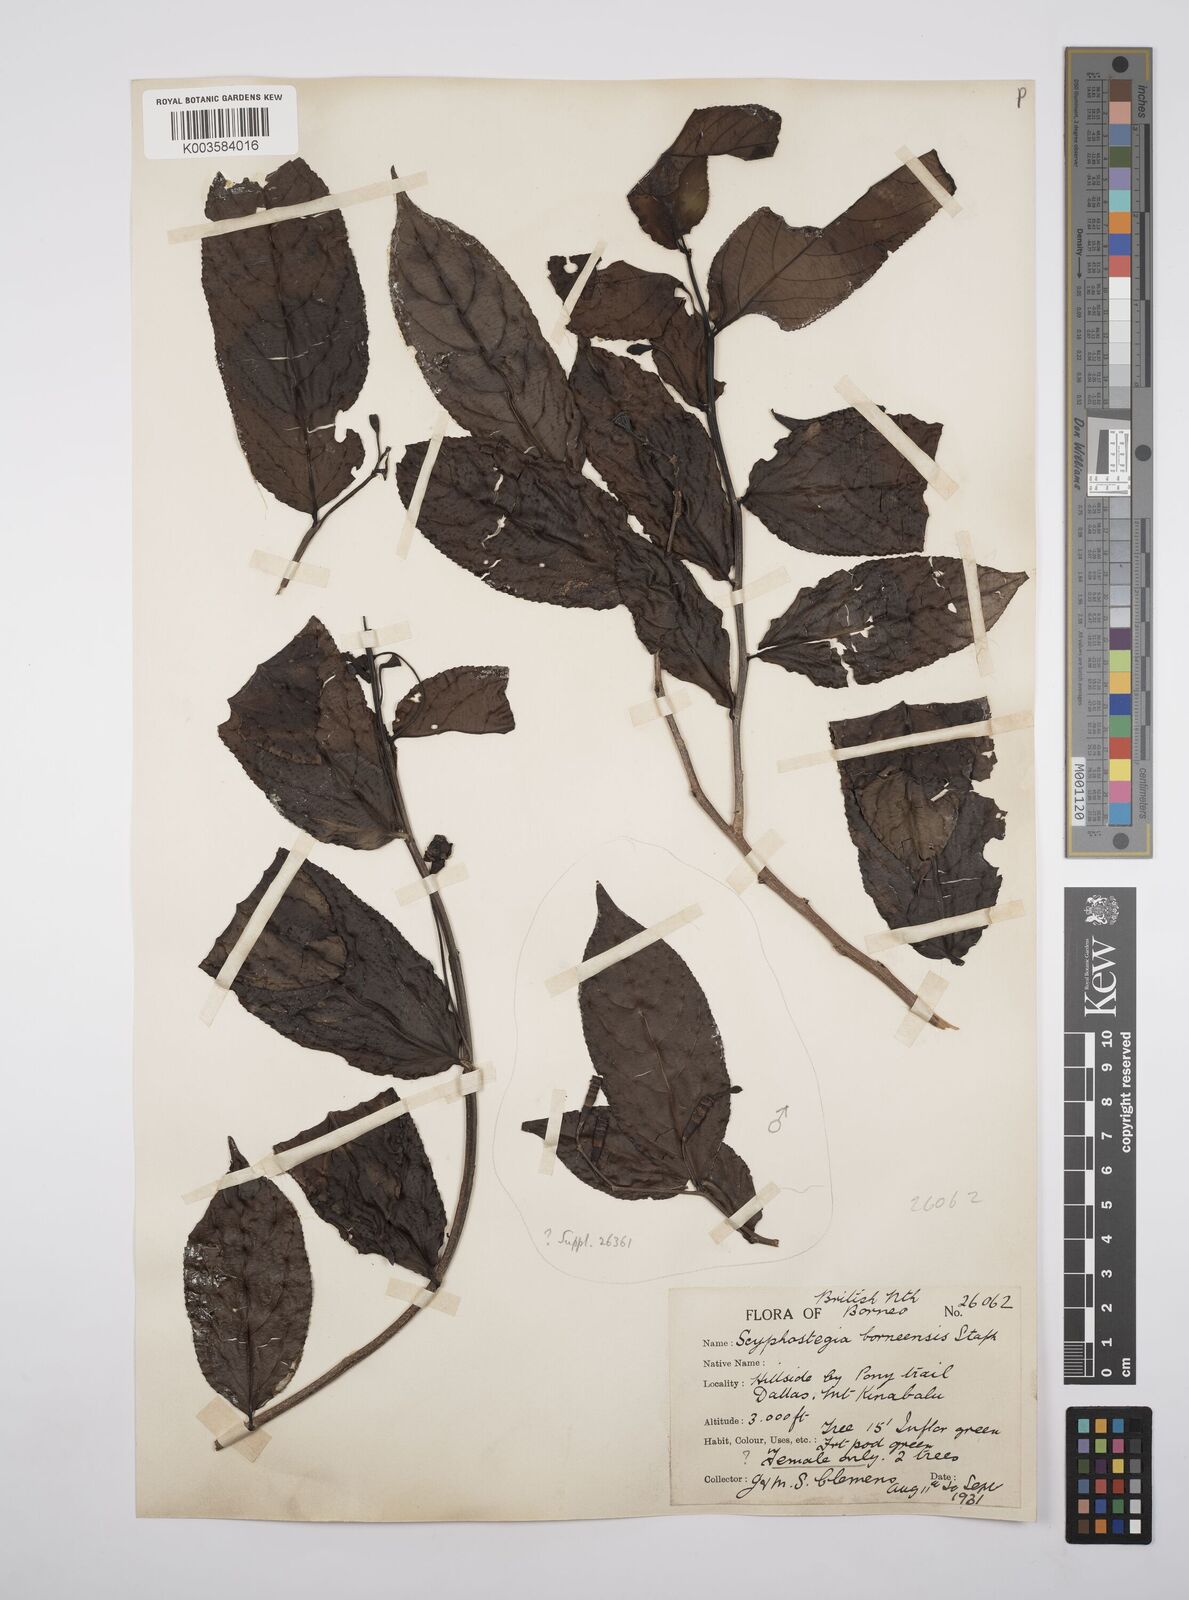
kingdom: Plantae
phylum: Tracheophyta
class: Magnoliopsida
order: Malpighiales
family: Salicaceae
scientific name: Salicaceae
